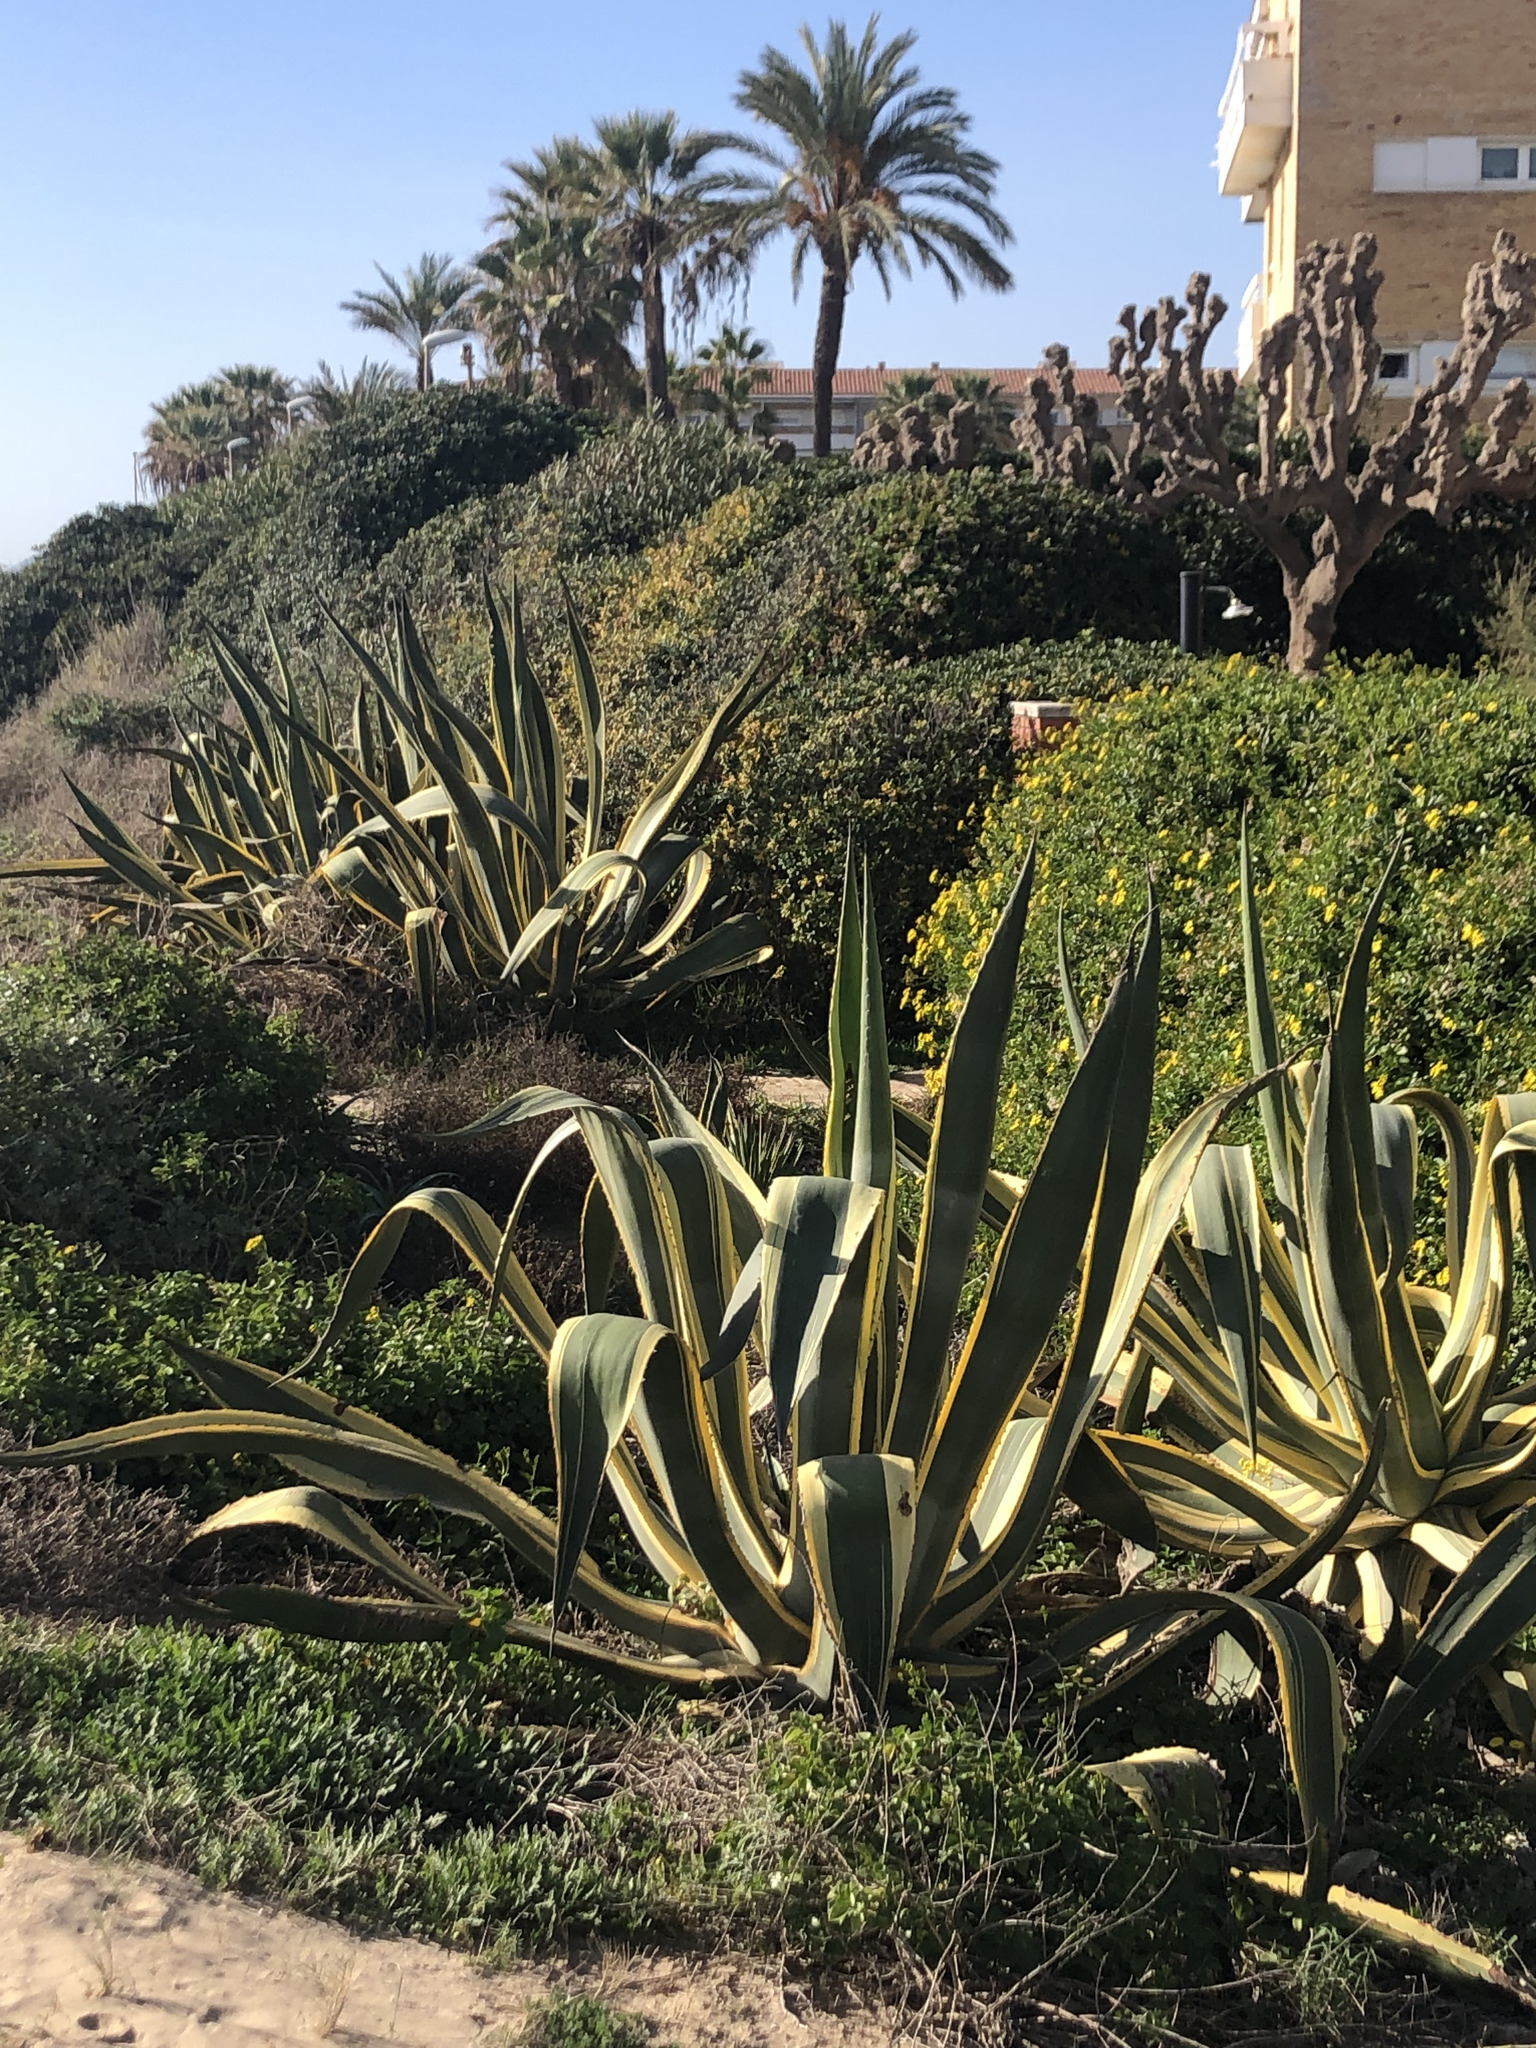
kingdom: Plantae
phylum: Tracheophyta
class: Liliopsida
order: Asparagales
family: Asparagaceae
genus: Agave
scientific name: Agave americana
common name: Centuryplant
